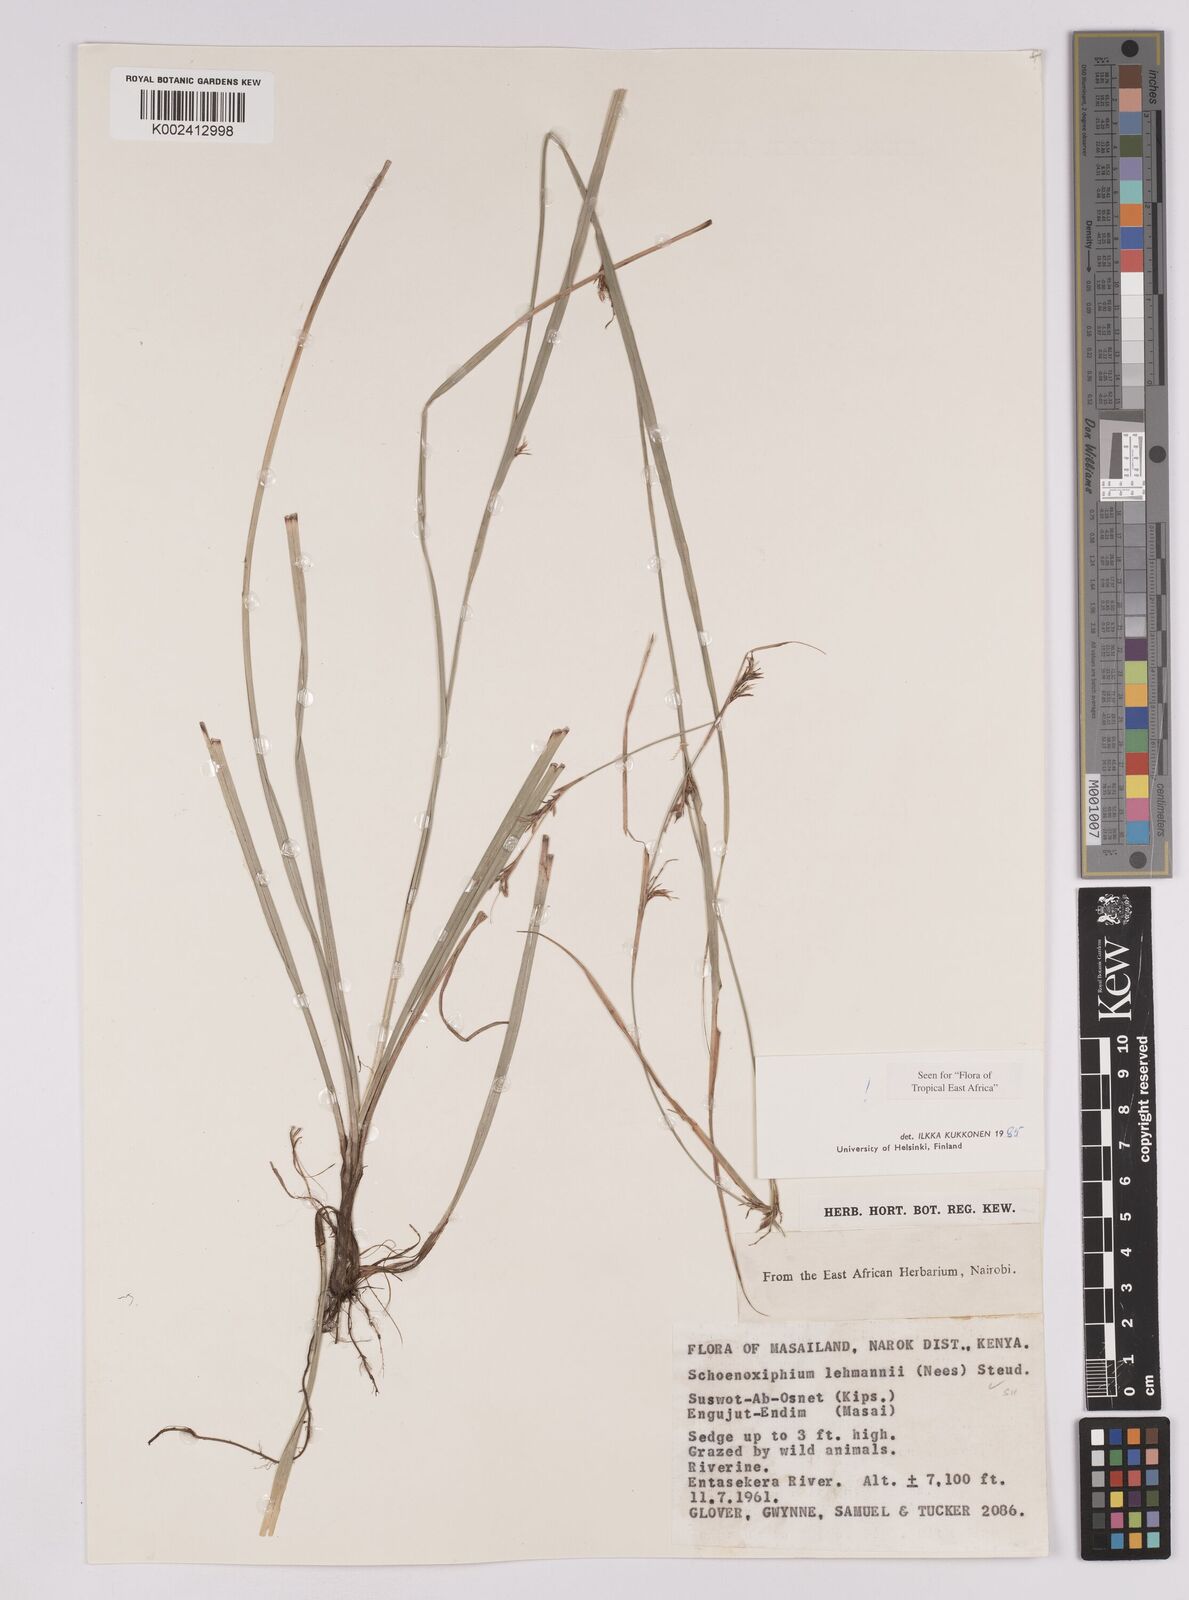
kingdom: Plantae
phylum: Tracheophyta
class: Liliopsida
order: Poales
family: Cyperaceae
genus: Carex
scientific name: Carex uhligii
